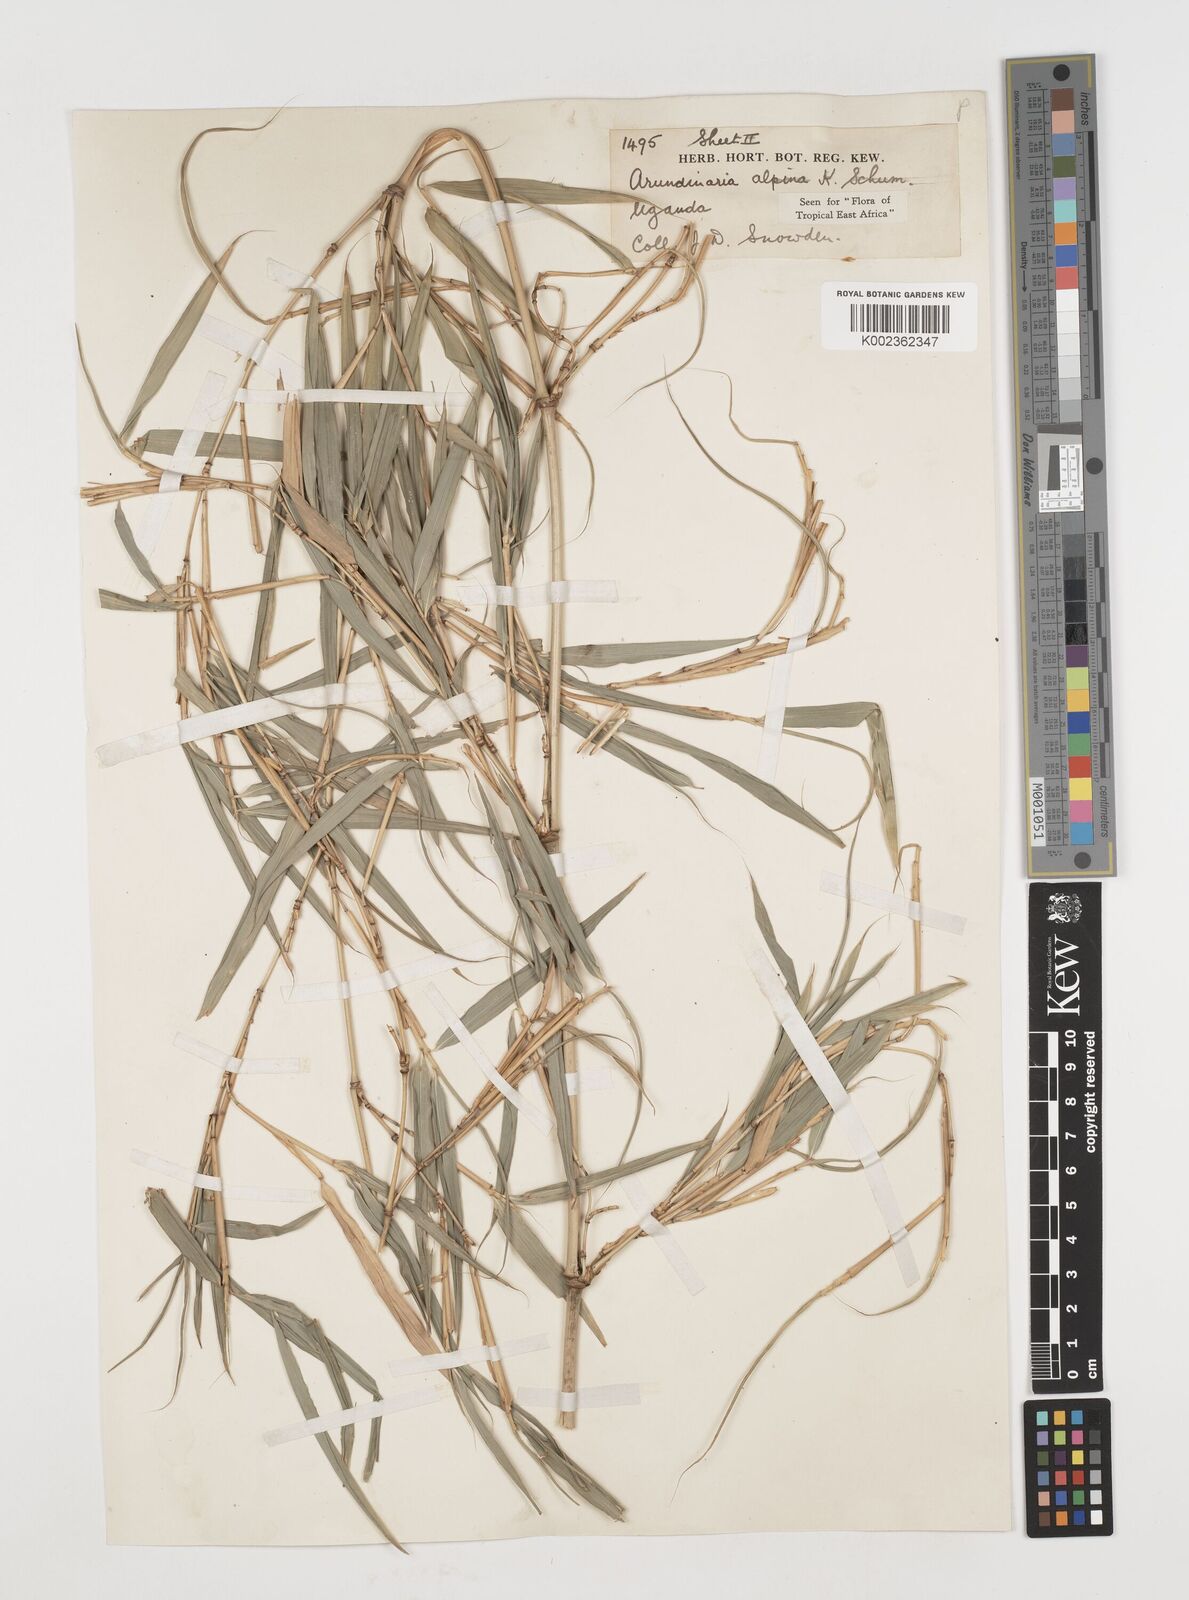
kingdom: Plantae
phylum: Tracheophyta
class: Liliopsida
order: Poales
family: Poaceae
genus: Oldeania
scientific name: Oldeania alpina
